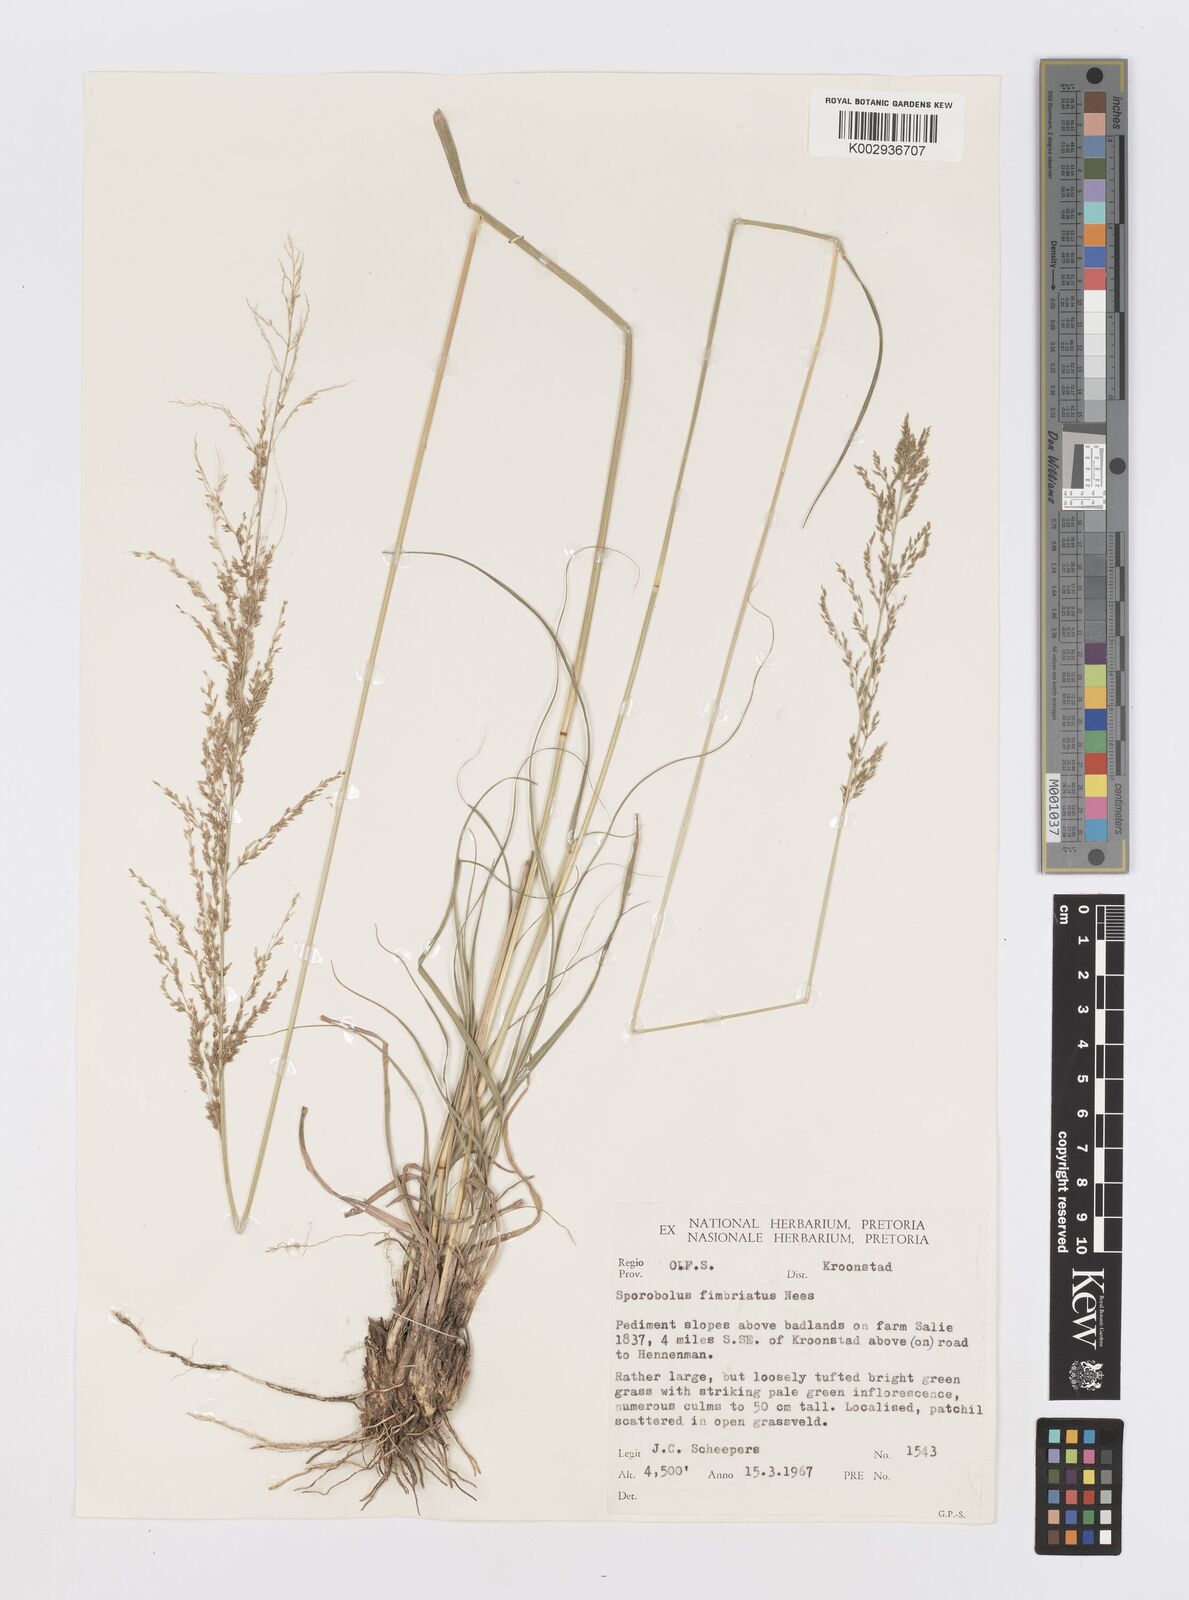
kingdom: Plantae
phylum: Tracheophyta
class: Liliopsida
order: Poales
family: Poaceae
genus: Sporobolus
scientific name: Sporobolus fimbriatus
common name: Fringed dropseed
